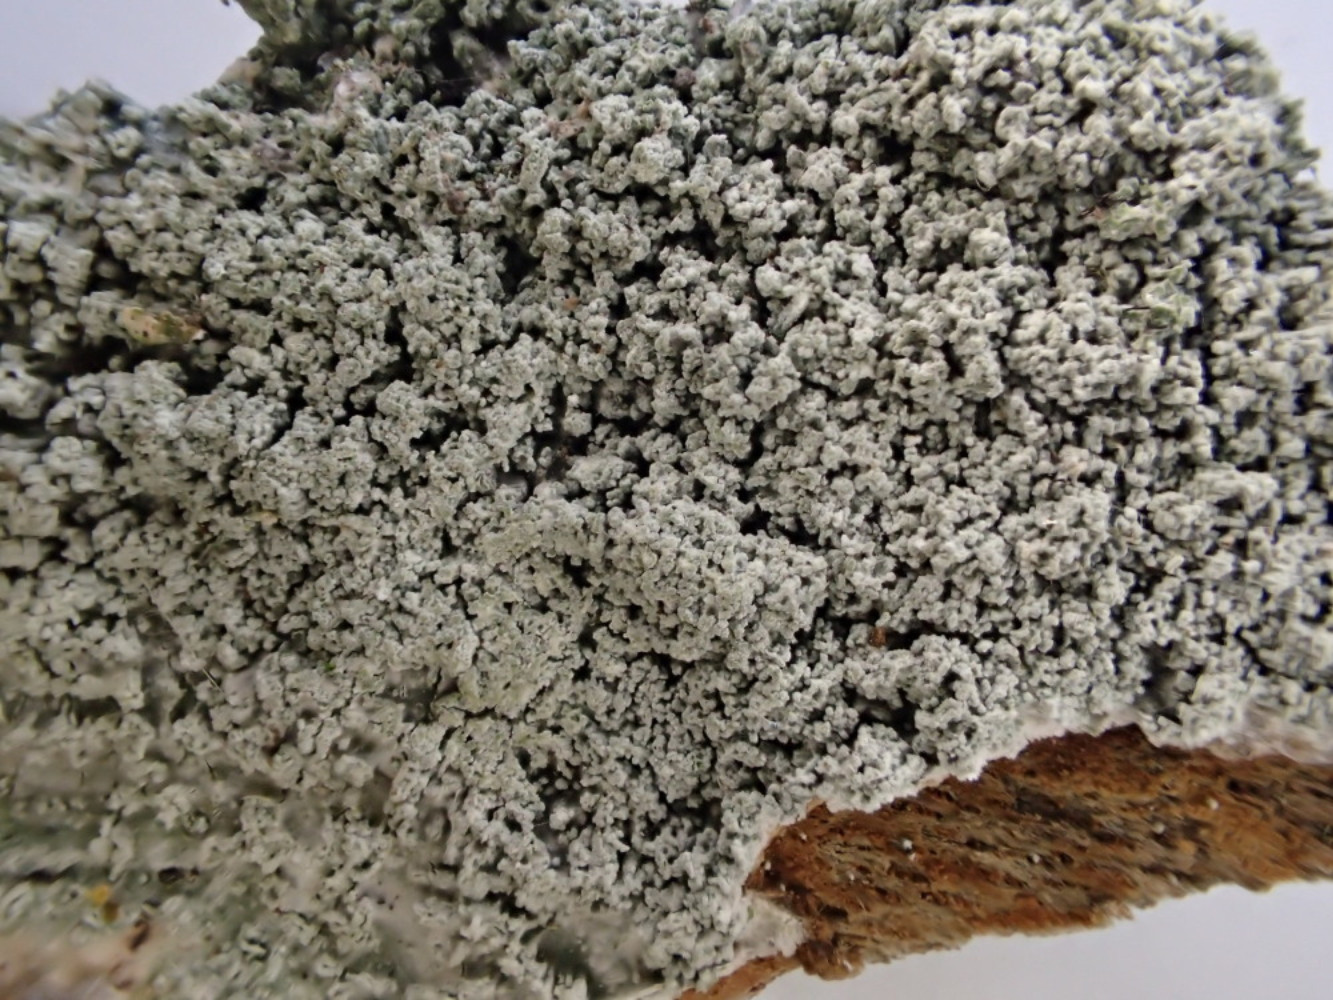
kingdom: Fungi
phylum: Ascomycota
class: Lecanoromycetes
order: Pertusariales
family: Pertusariaceae
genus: Lepra
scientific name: Lepra amara
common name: bitter prikvortelav
